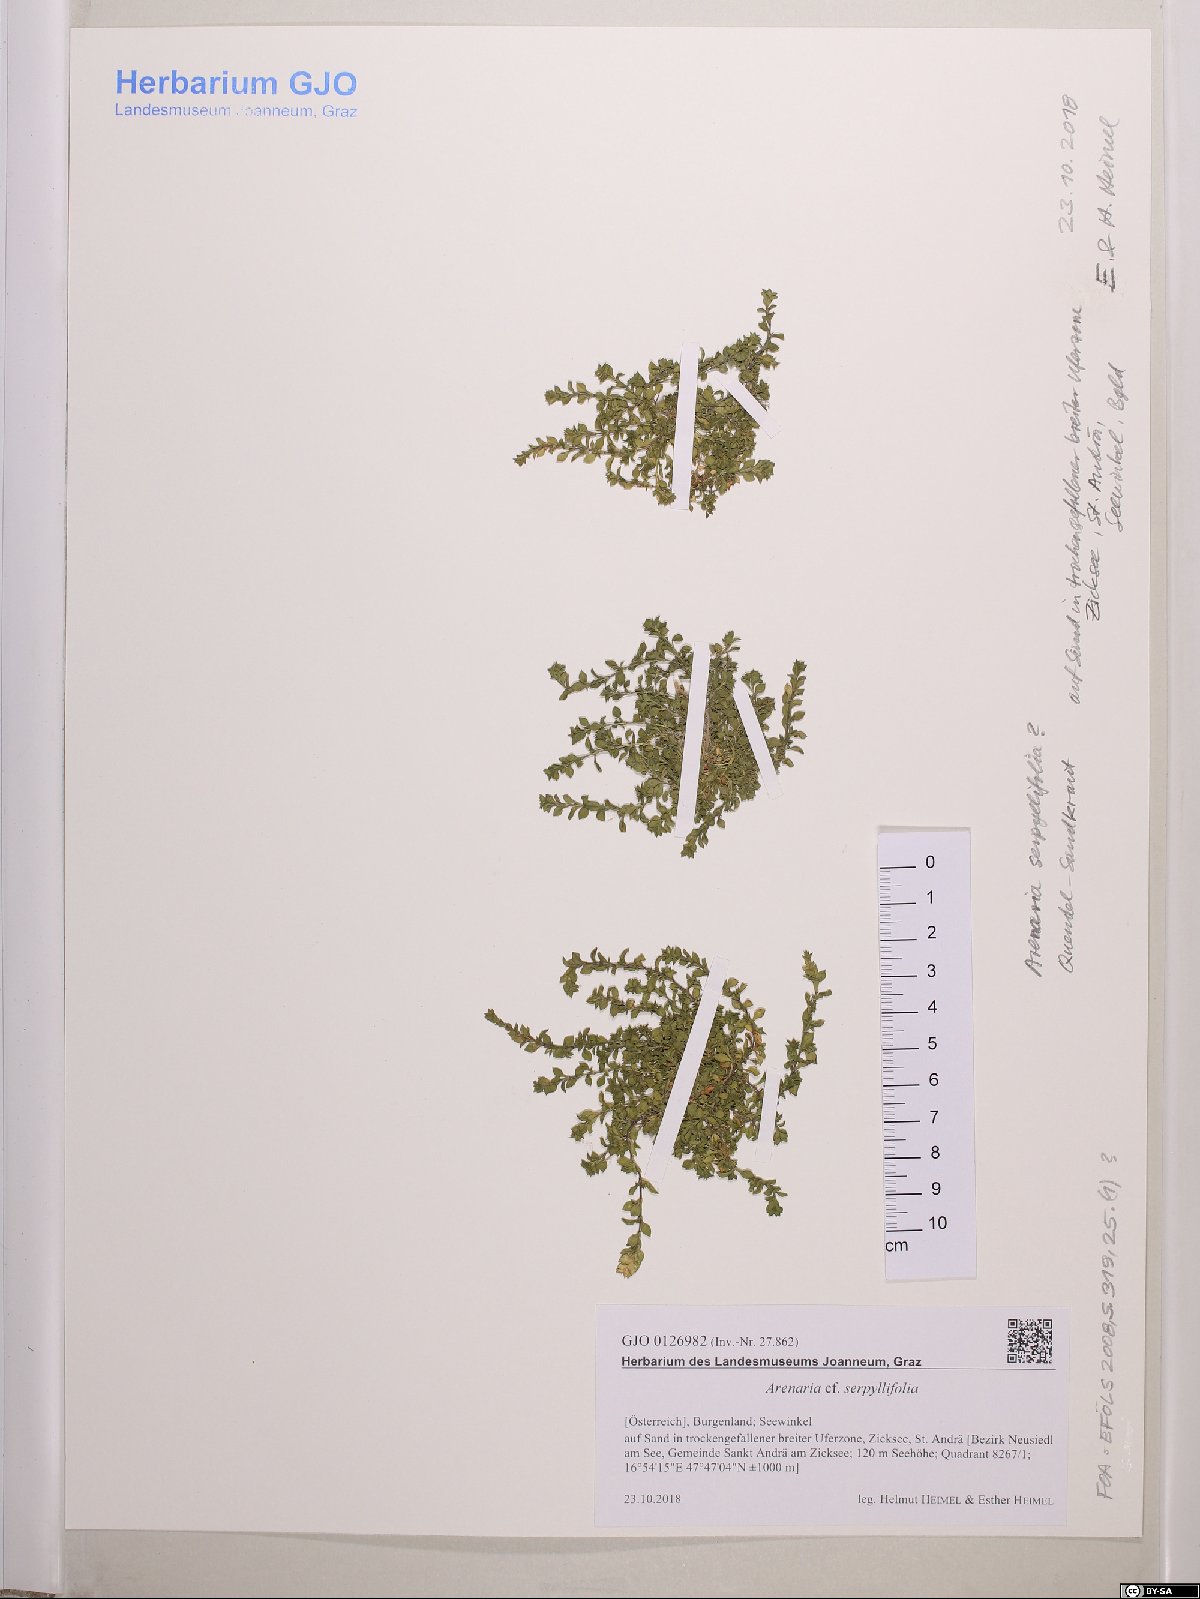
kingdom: Plantae
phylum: Tracheophyta
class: Magnoliopsida
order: Caryophyllales
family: Caryophyllaceae
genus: Arenaria
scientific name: Arenaria serpyllifolia
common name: Thyme-leaved sandwort
